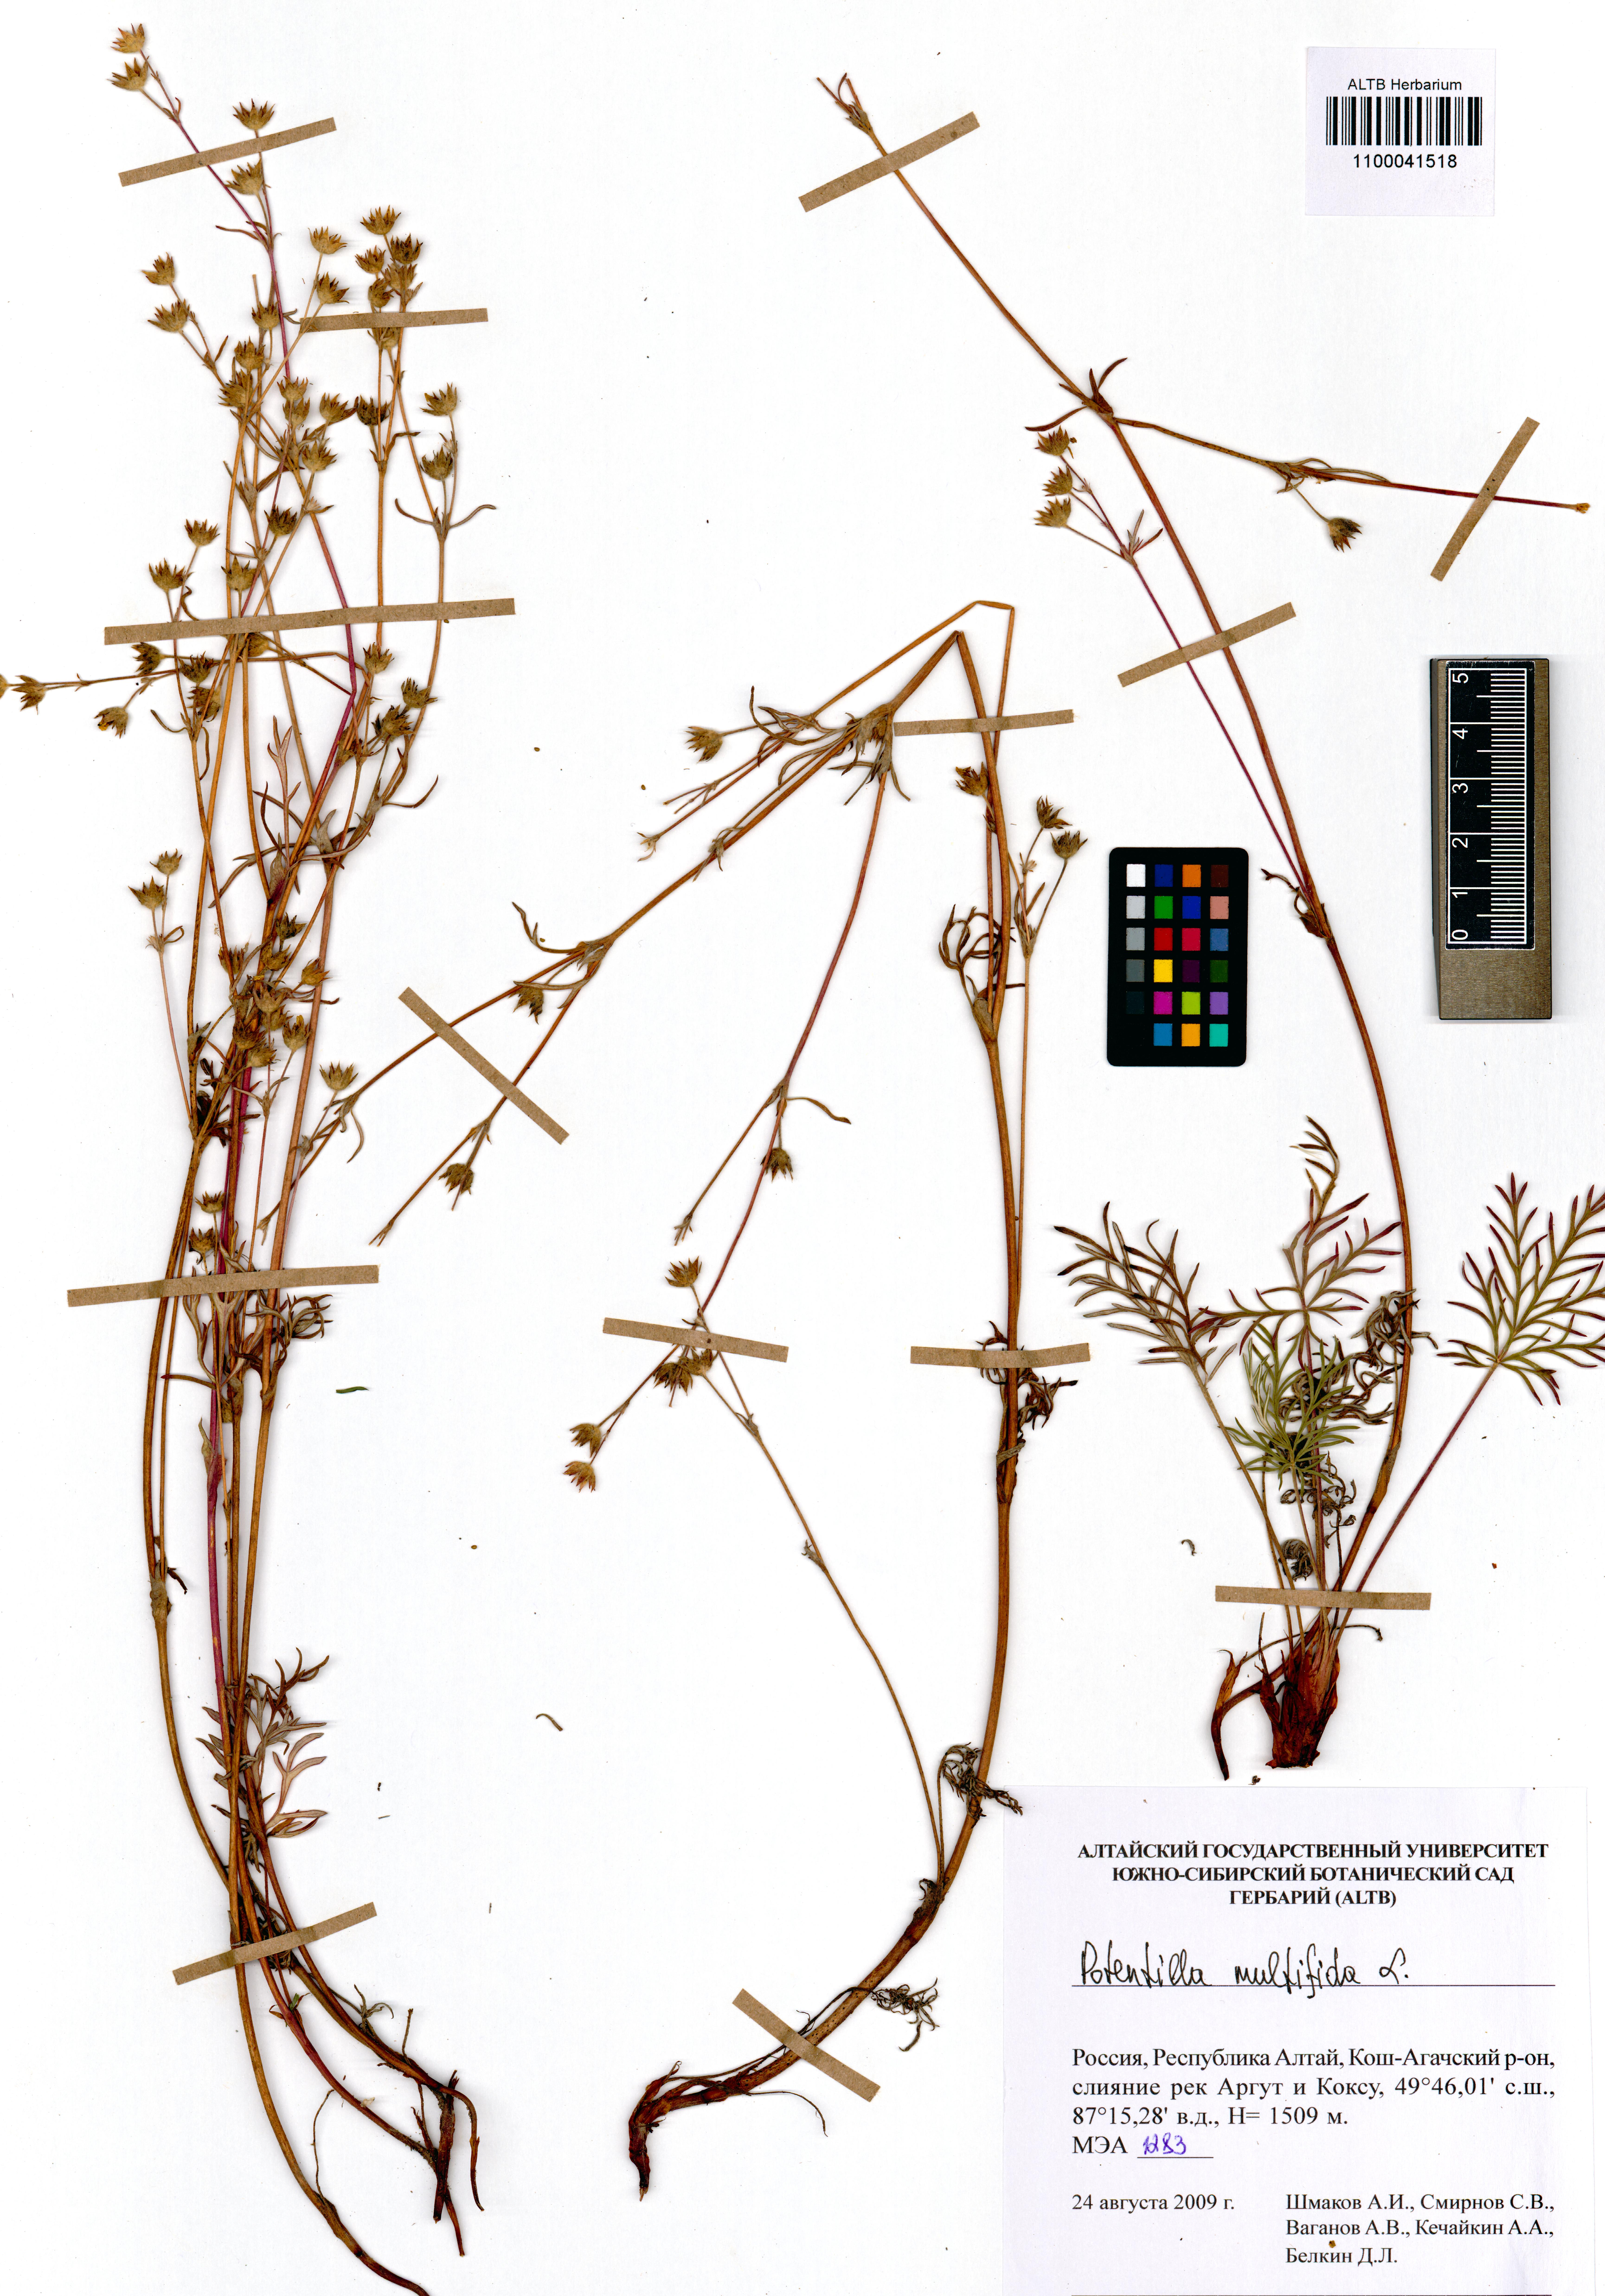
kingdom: Plantae
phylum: Tracheophyta
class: Magnoliopsida
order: Rosales
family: Rosaceae
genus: Potentilla
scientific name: Potentilla multifida
